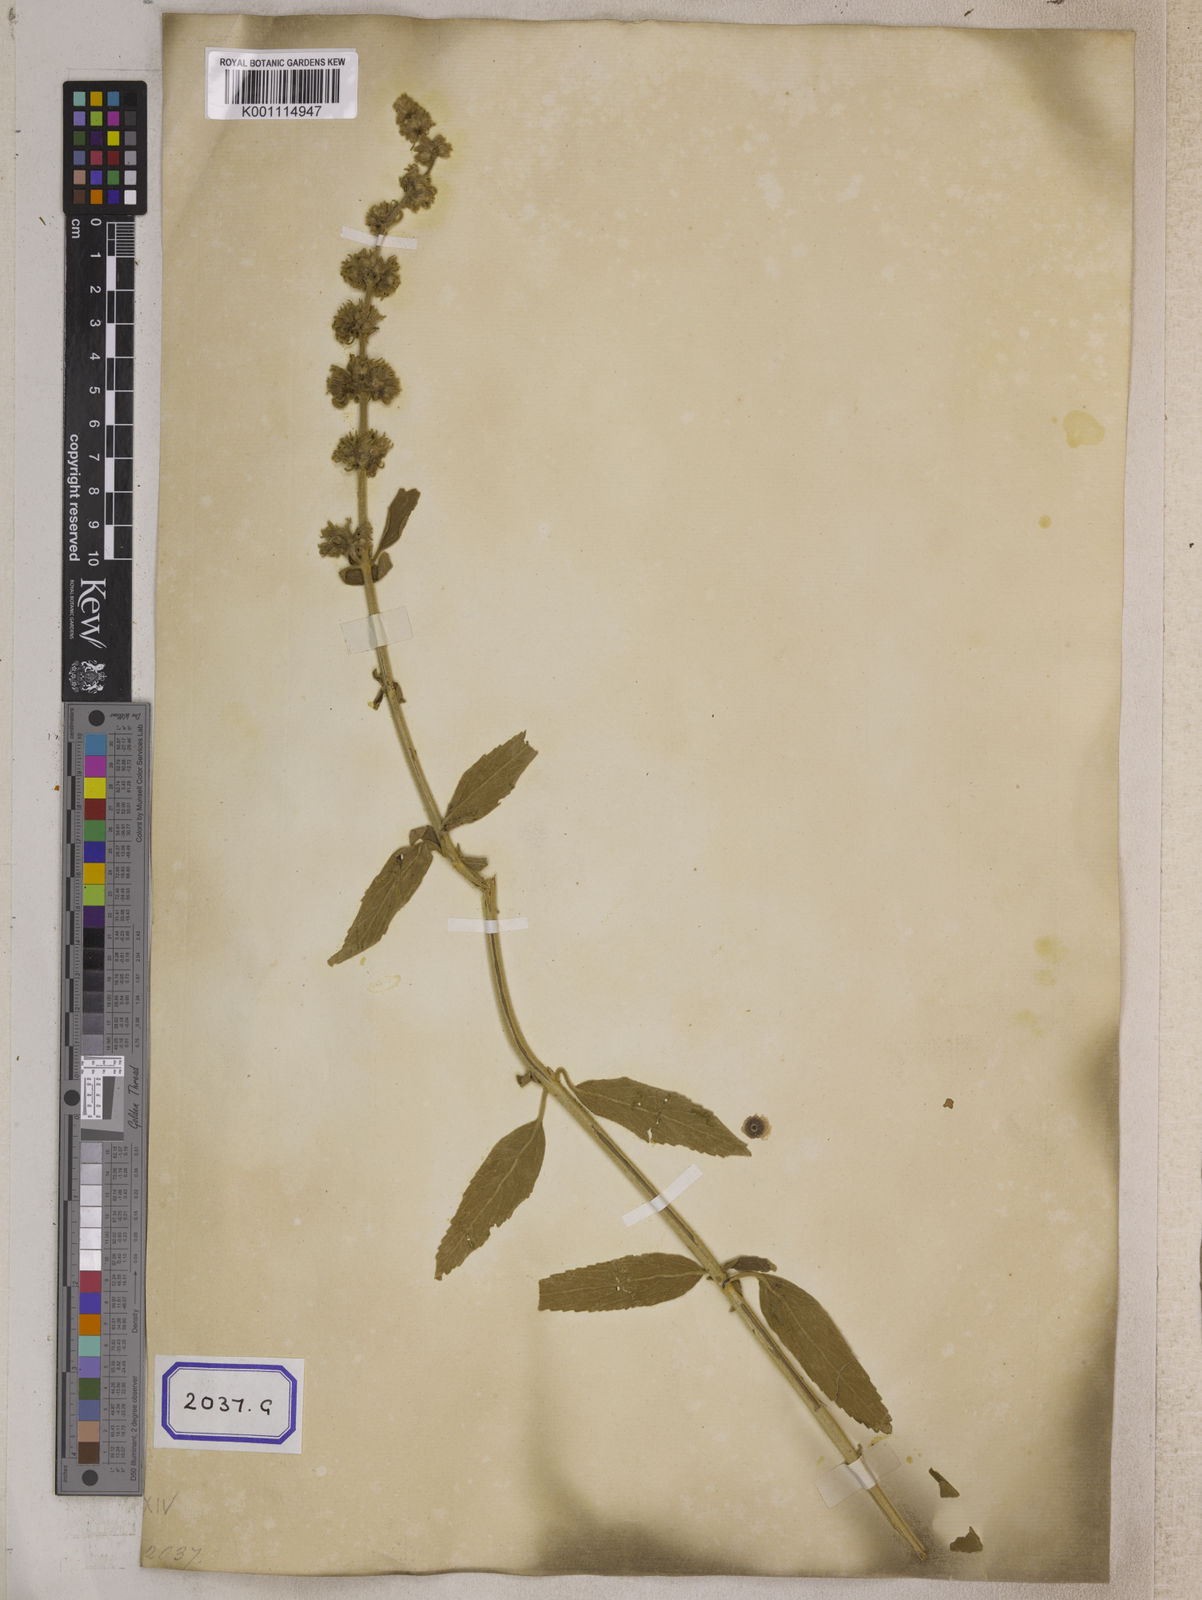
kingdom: Plantae
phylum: Tracheophyta
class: Magnoliopsida
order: Lamiales
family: Lamiaceae
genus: Anisomeles
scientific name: Anisomeles malabarica
